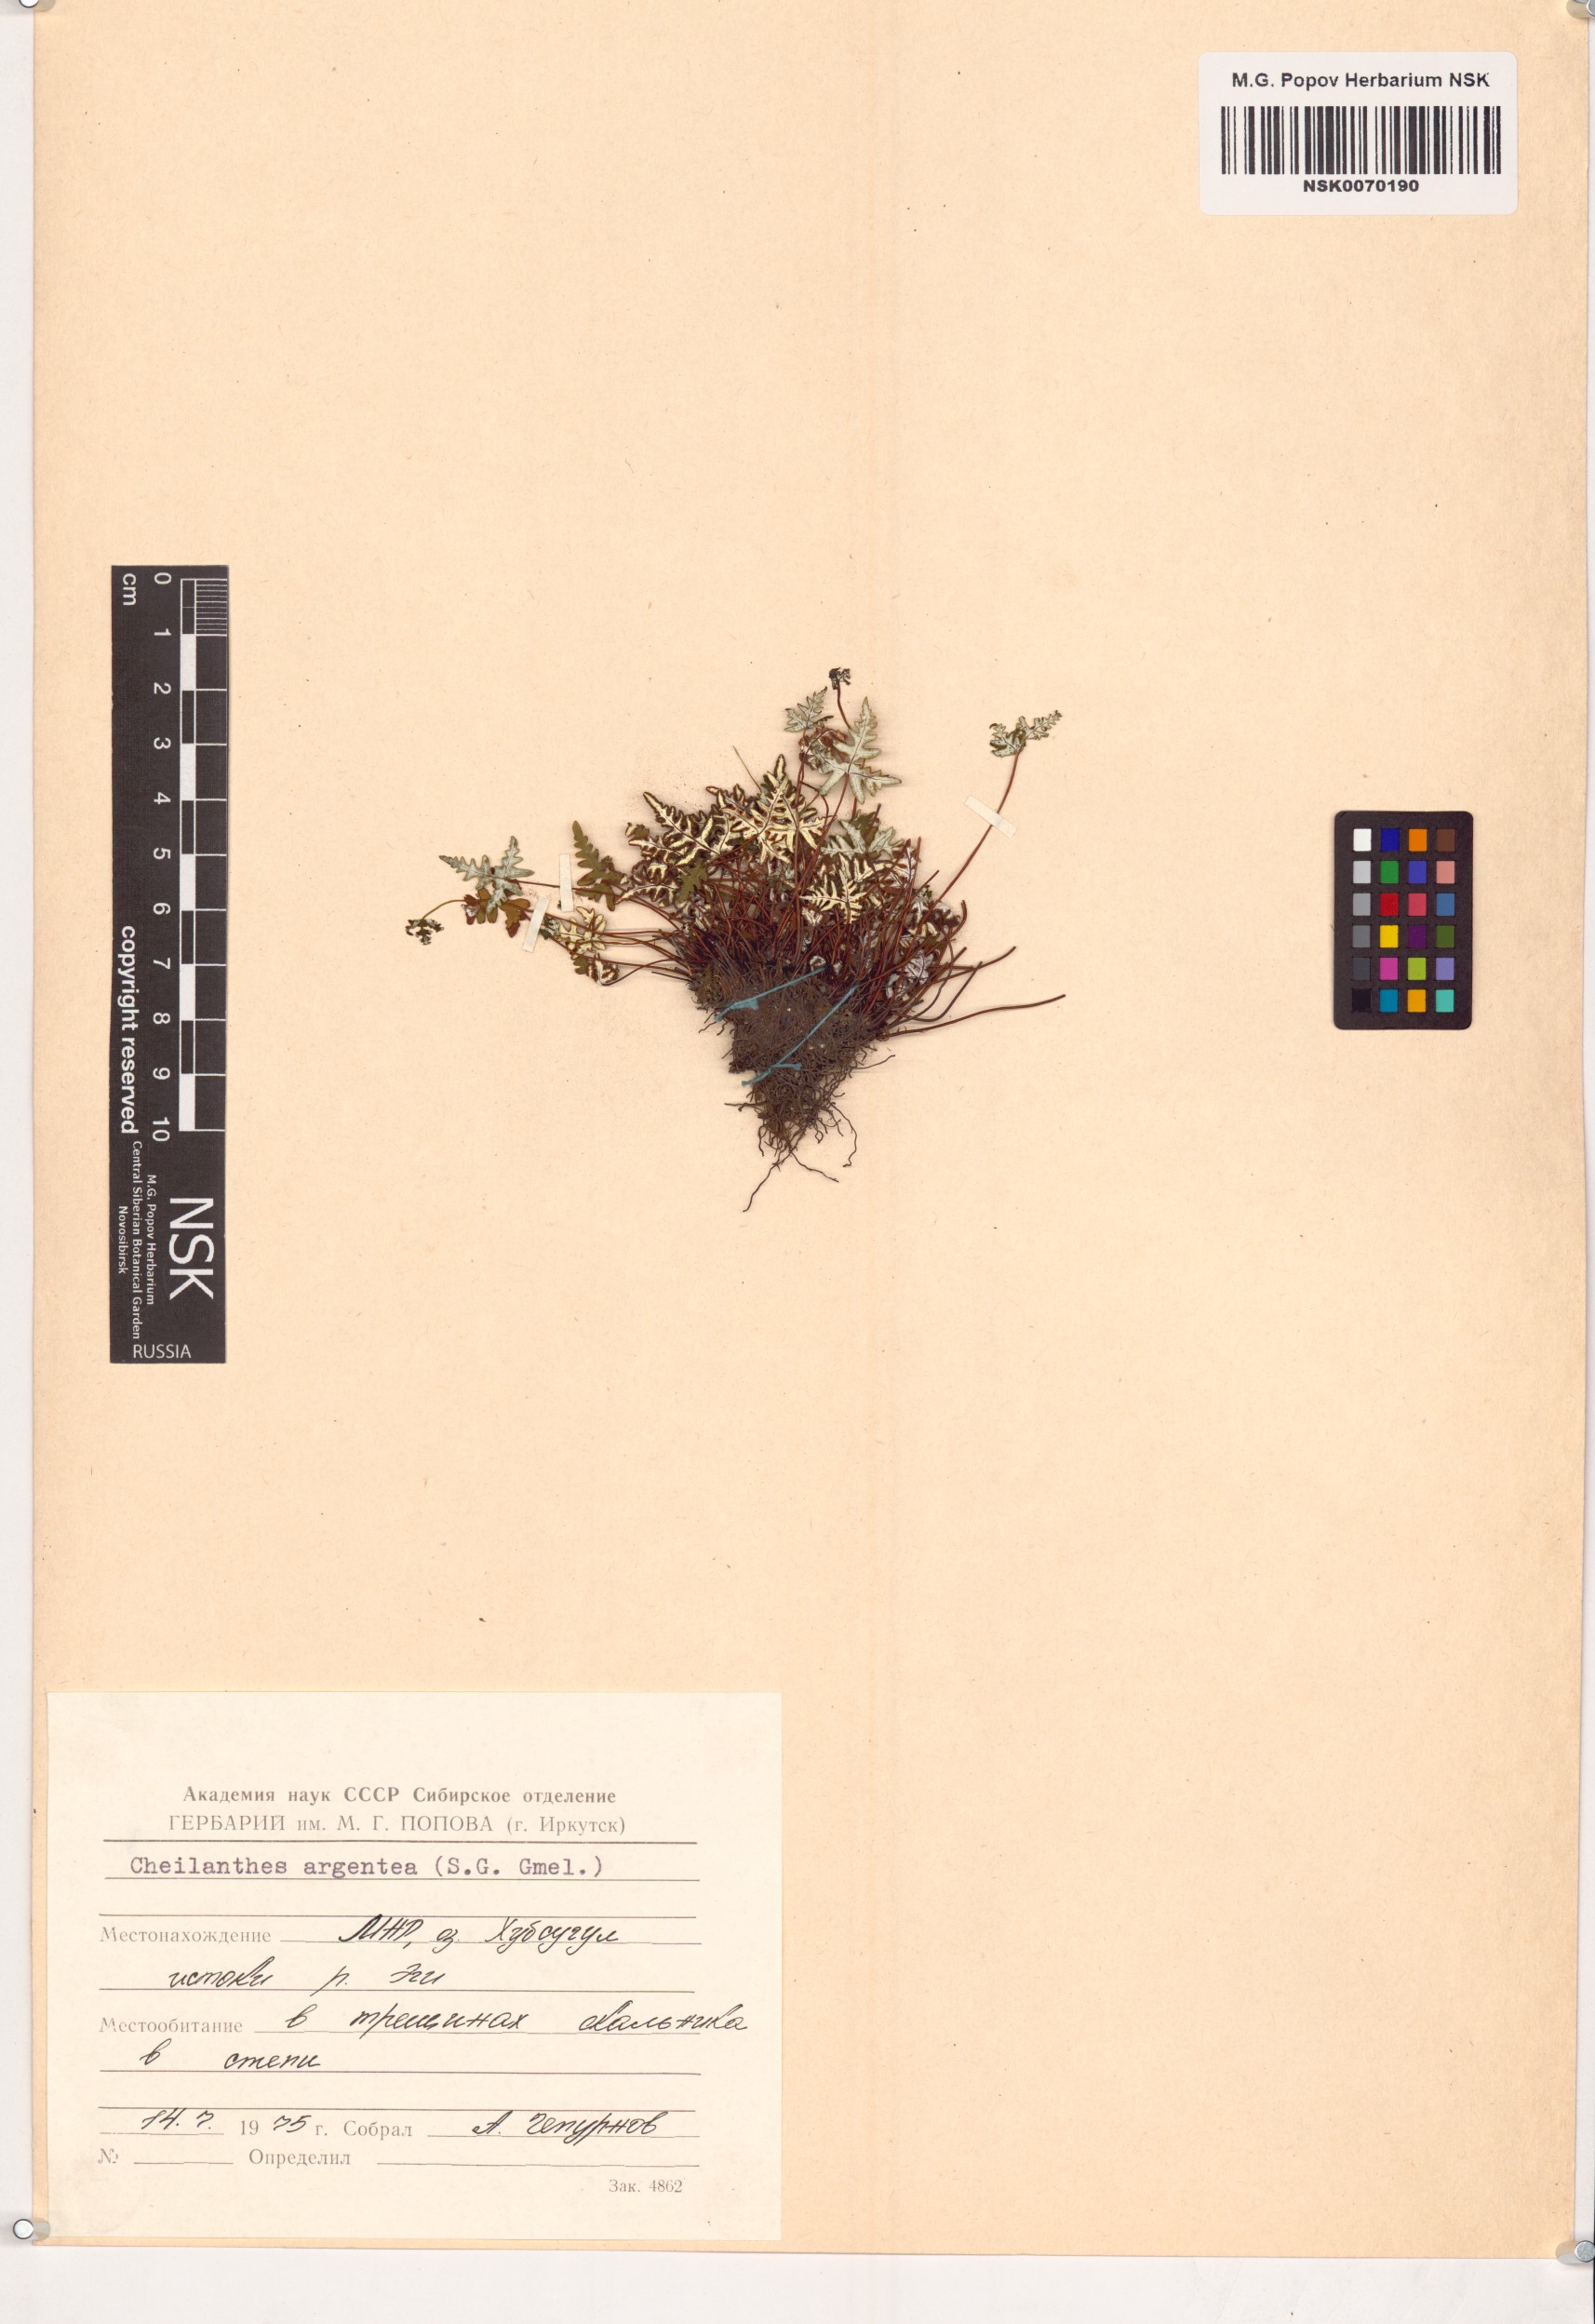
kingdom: Plantae
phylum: Tracheophyta
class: Polypodiopsida
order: Polypodiales
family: Pteridaceae
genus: Aleuritopteris
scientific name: Aleuritopteris argentea
